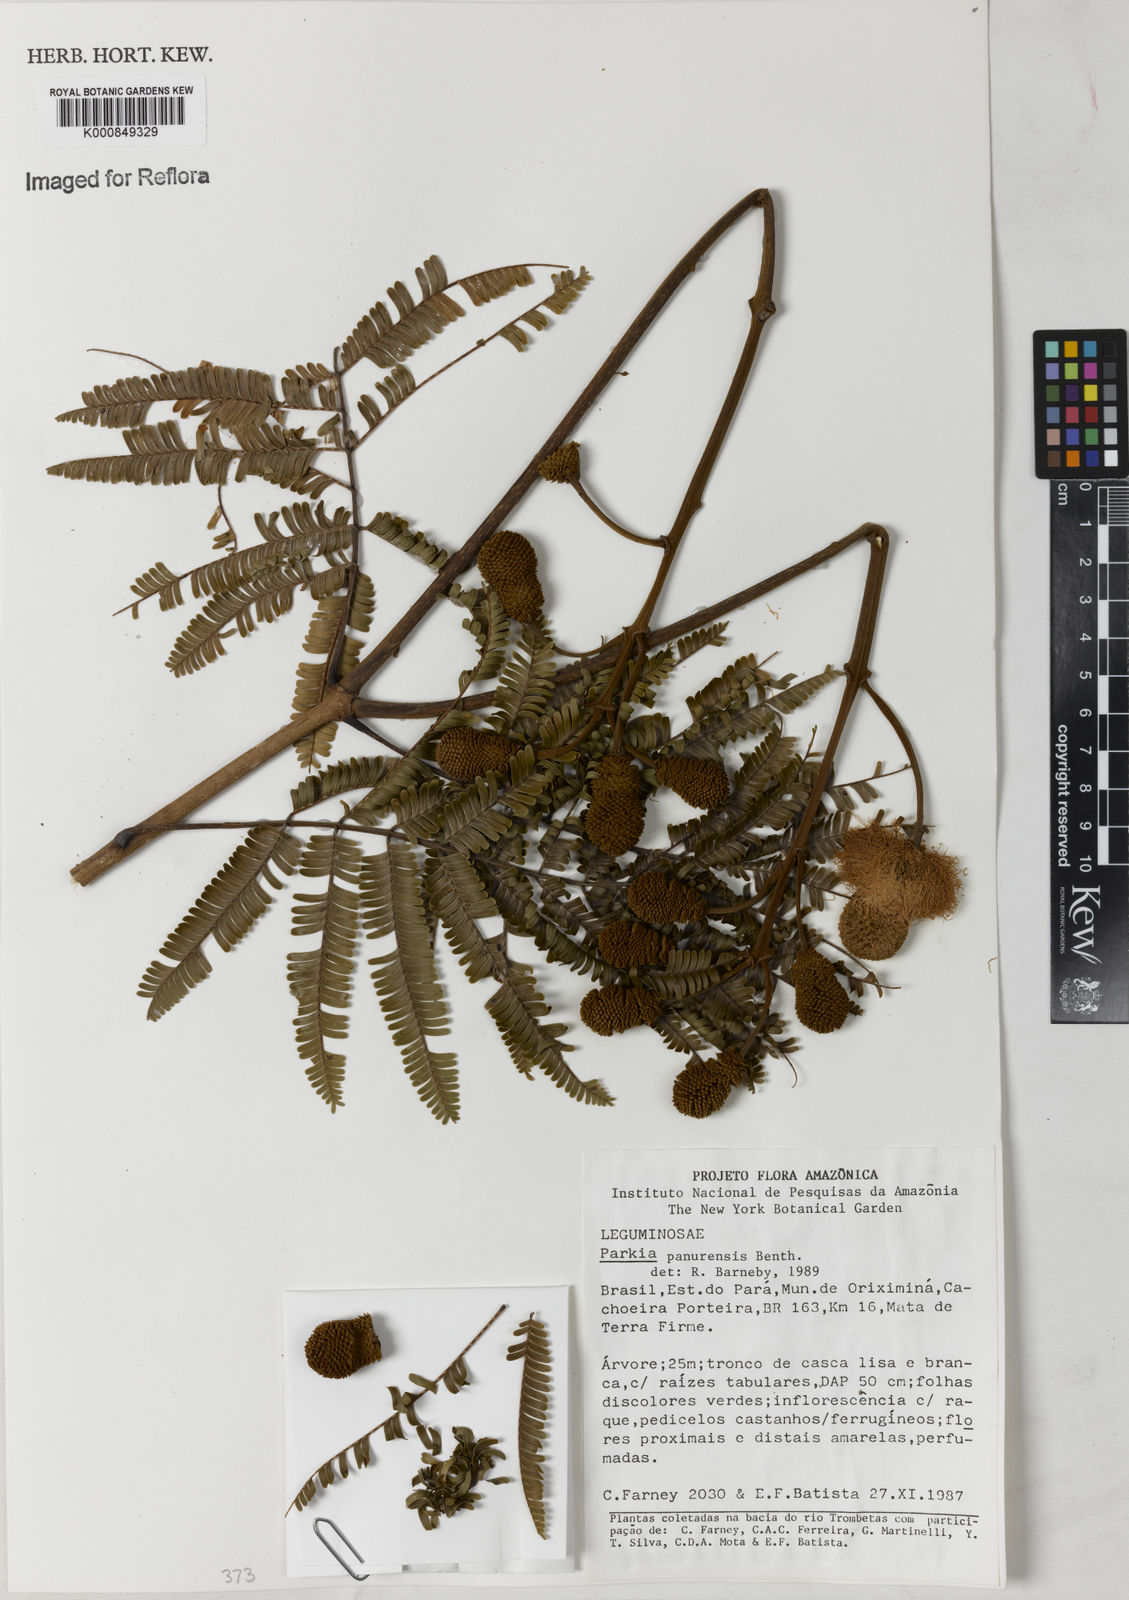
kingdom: Plantae
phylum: Tracheophyta
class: Magnoliopsida
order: Fabales
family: Fabaceae
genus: Parkia
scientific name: Parkia pectinata
